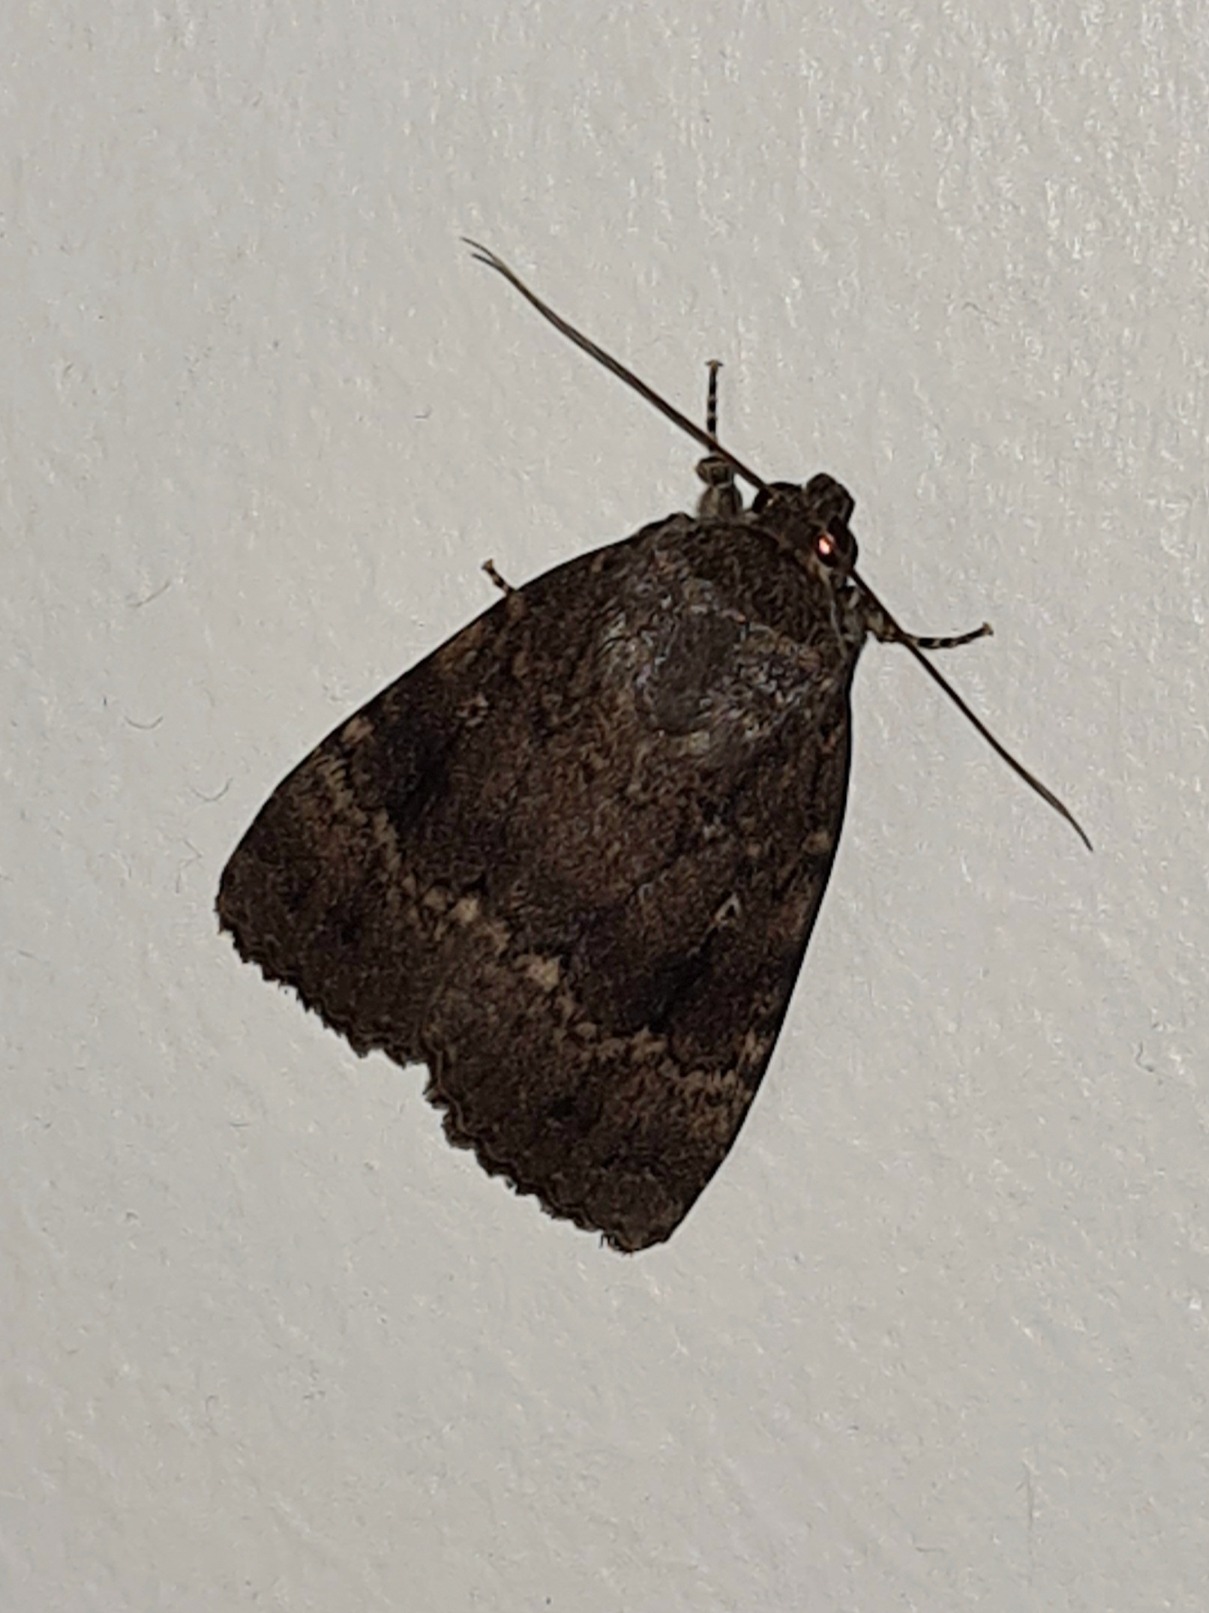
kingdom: Animalia
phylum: Arthropoda
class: Insecta
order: Lepidoptera
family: Noctuidae
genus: Amphipyra
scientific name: Amphipyra pyramidea
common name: Pyramideugle
